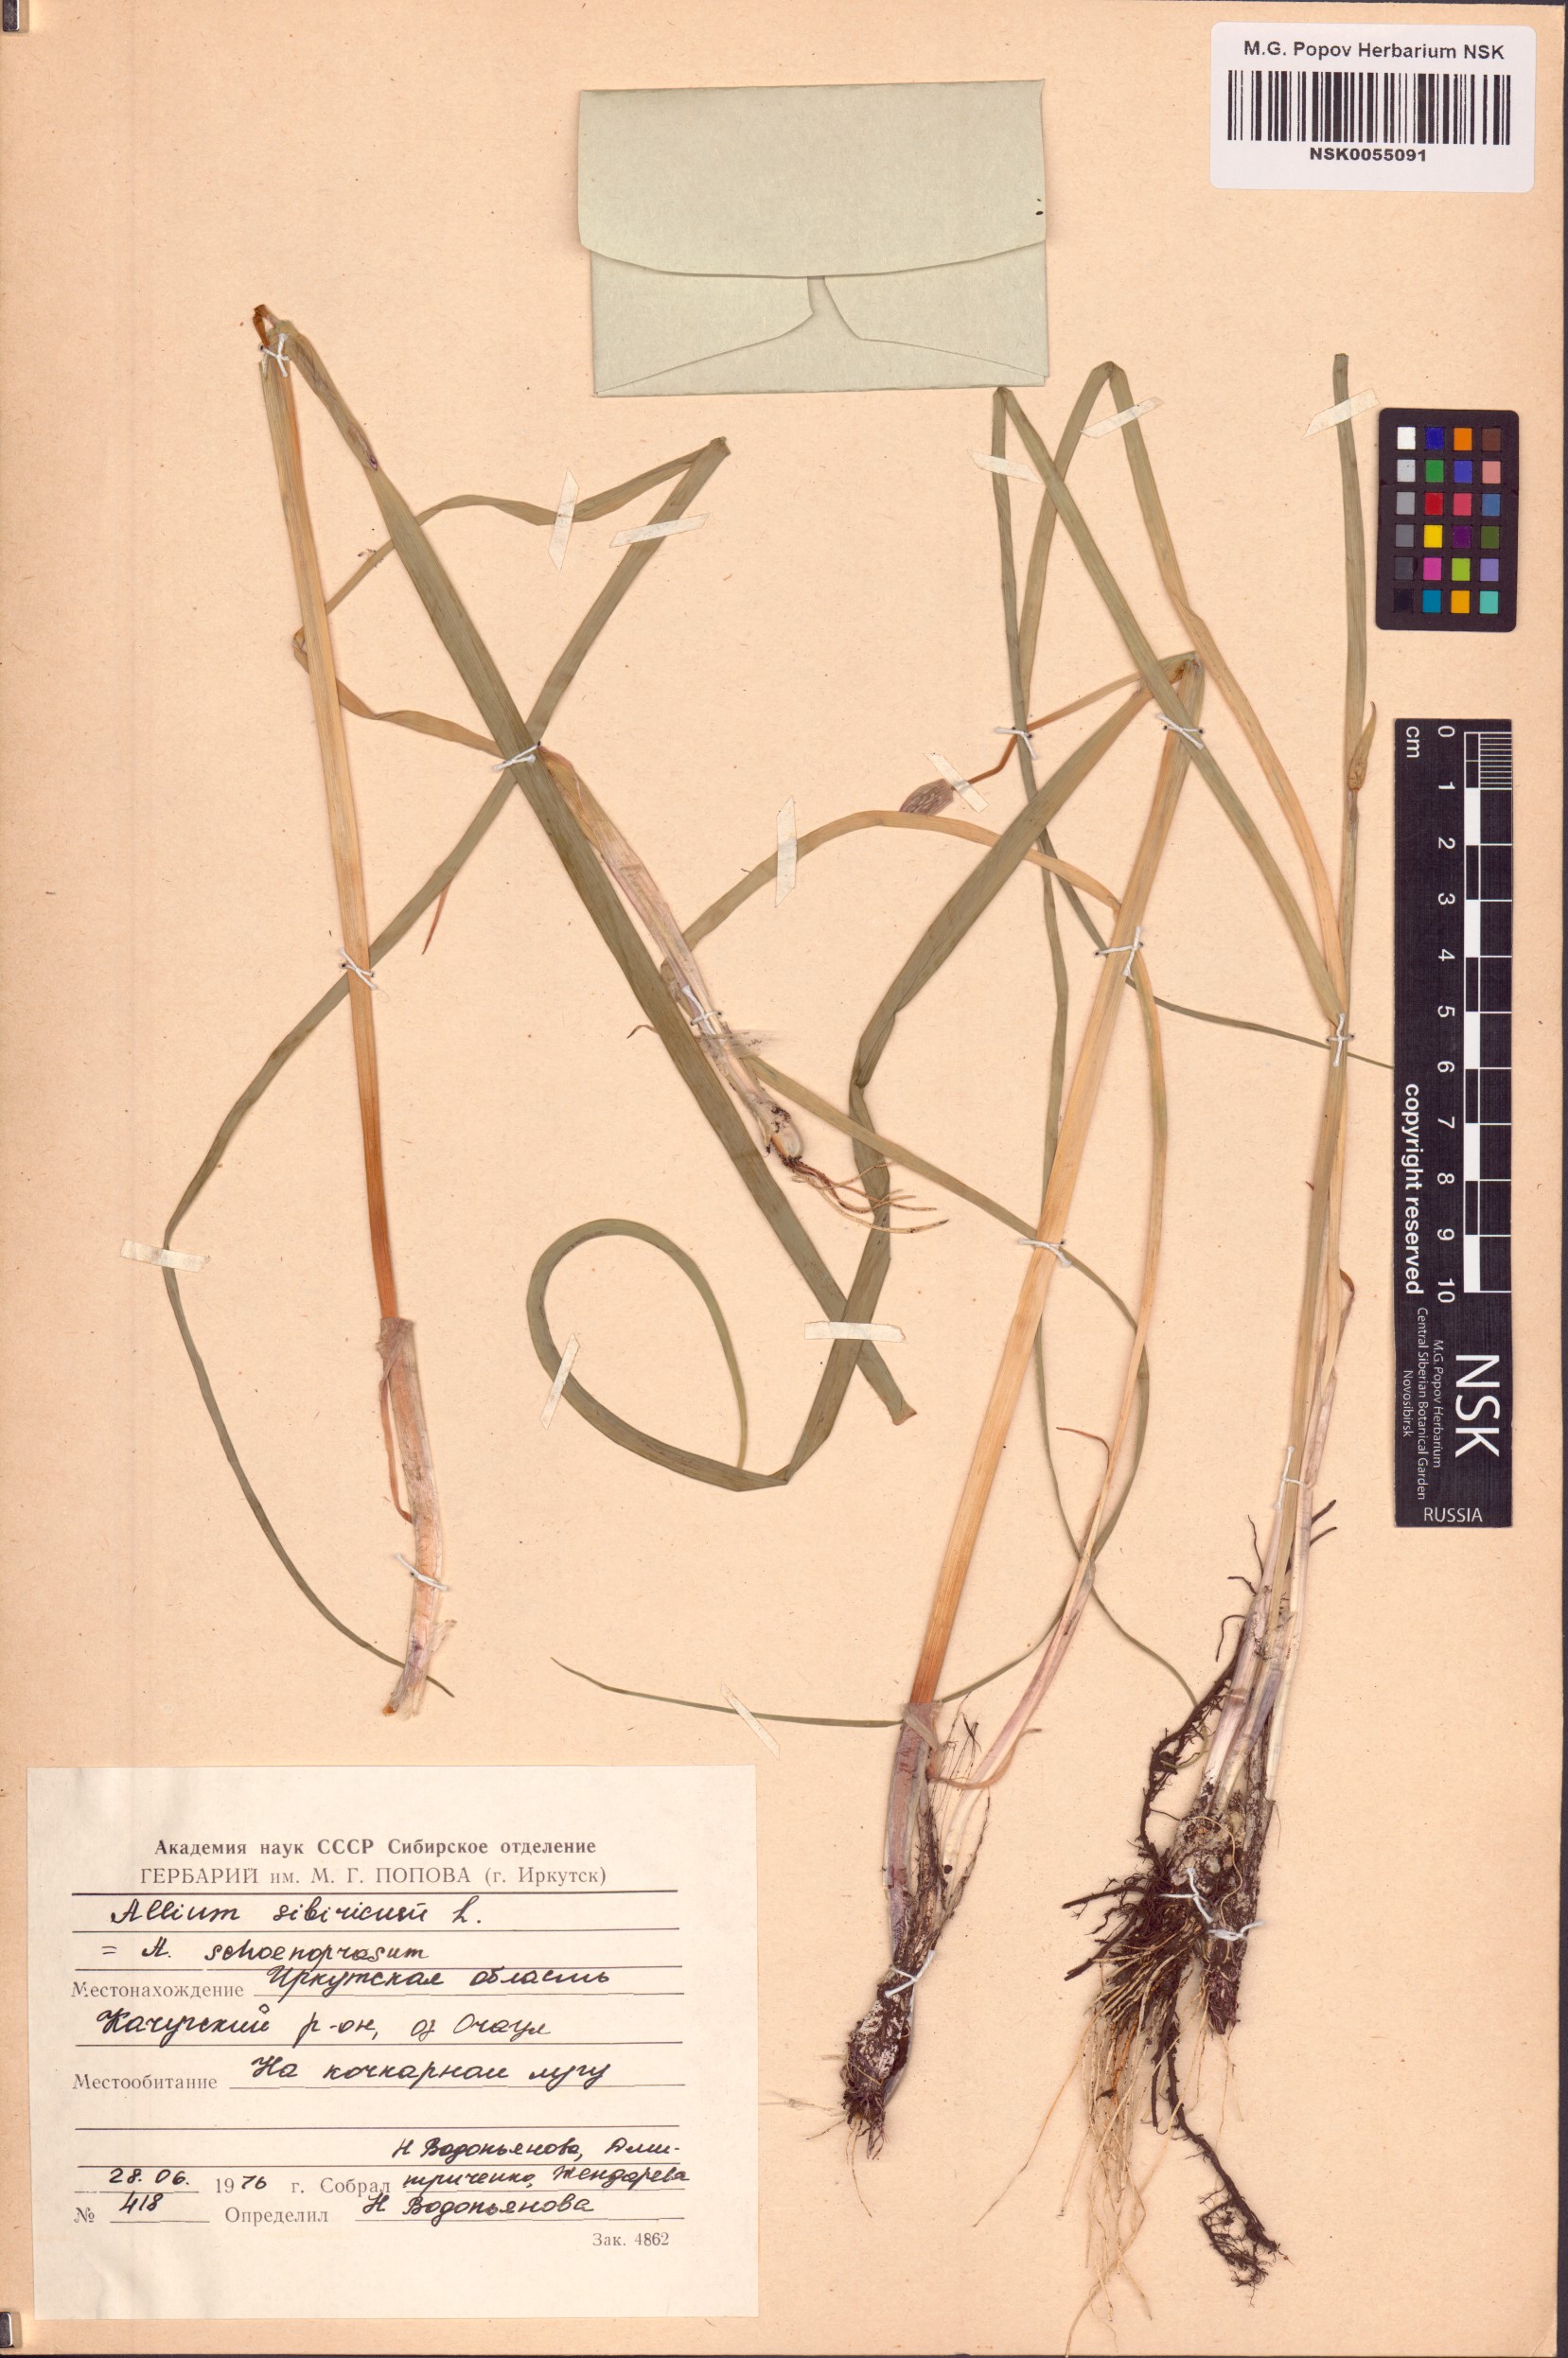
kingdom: Plantae
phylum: Tracheophyta
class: Liliopsida
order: Asparagales
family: Amaryllidaceae
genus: Allium
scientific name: Allium schoenoprasum
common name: Chives
